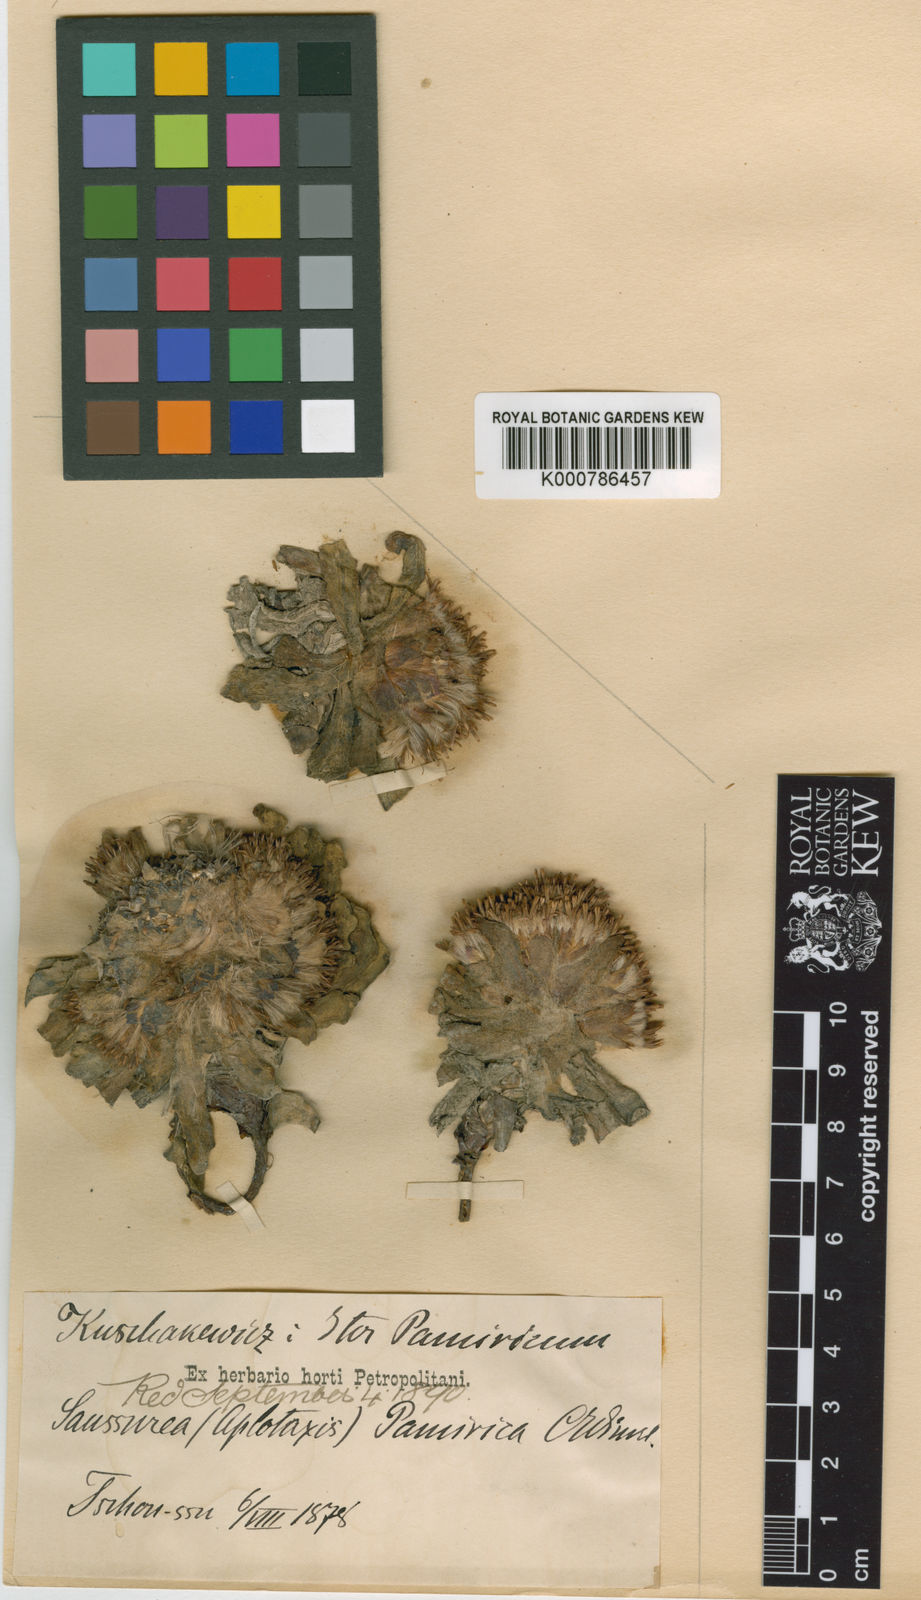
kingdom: Plantae
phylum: Tracheophyta
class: Magnoliopsida
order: Asterales
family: Asteraceae
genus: Saussurea
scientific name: Saussurea glacialis
